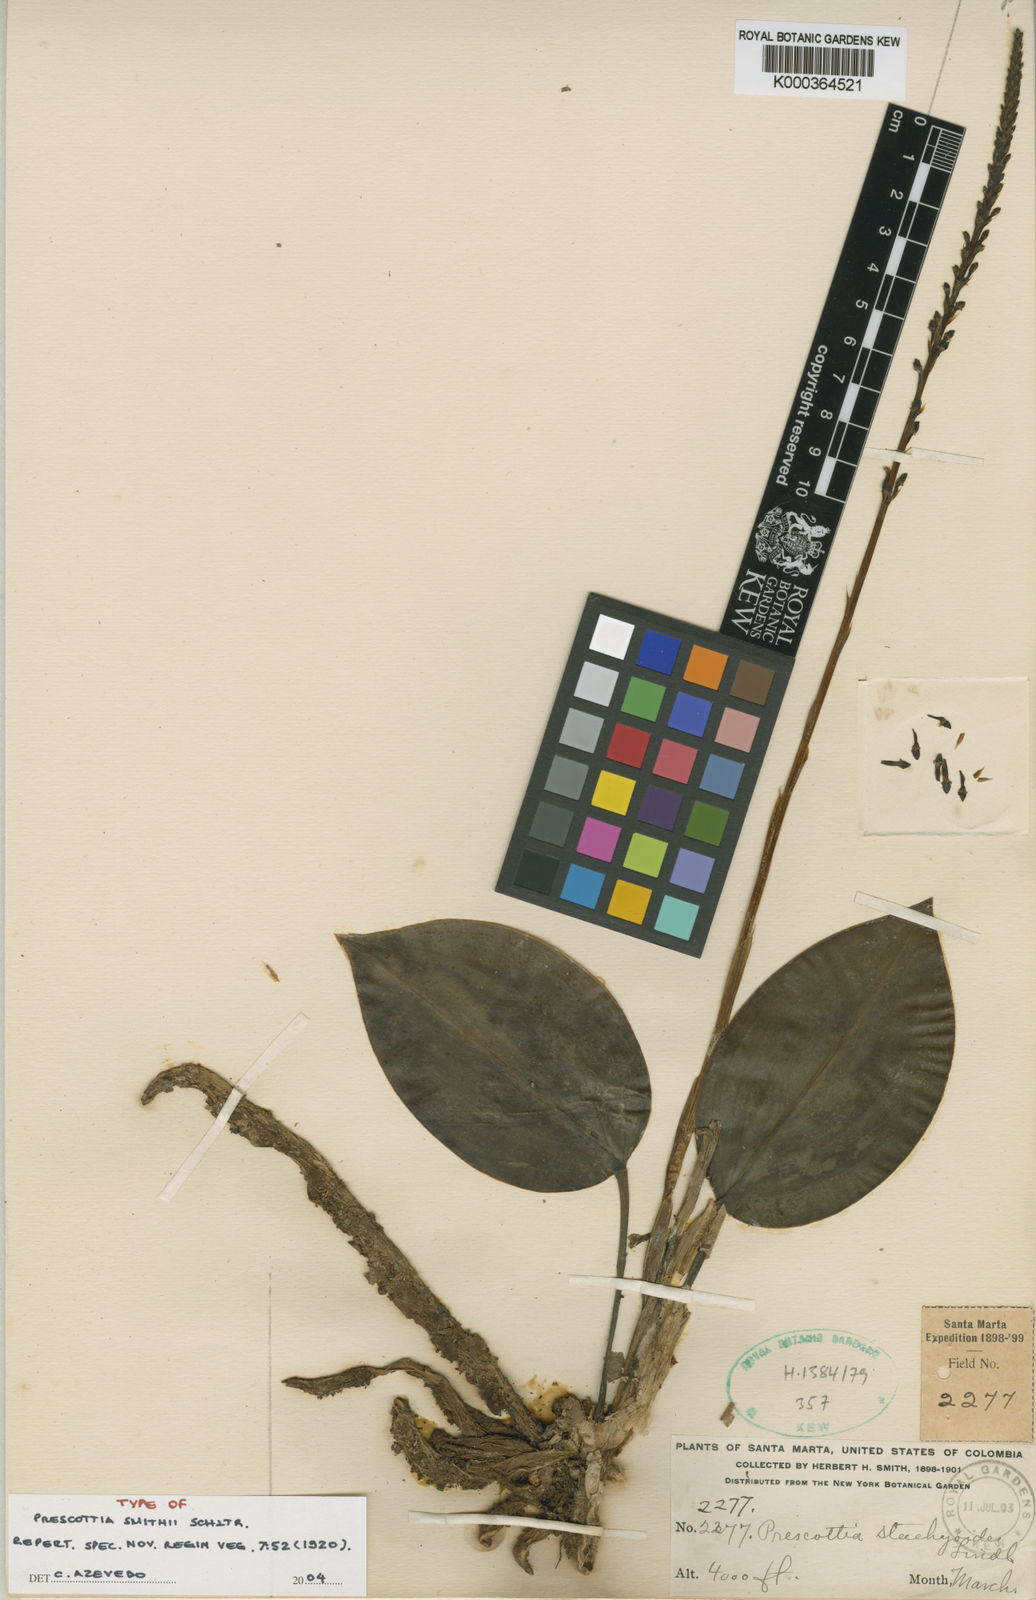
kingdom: Plantae
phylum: Tracheophyta
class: Liliopsida
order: Asparagales
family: Orchidaceae
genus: Prescottia
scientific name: Prescottia smithii
